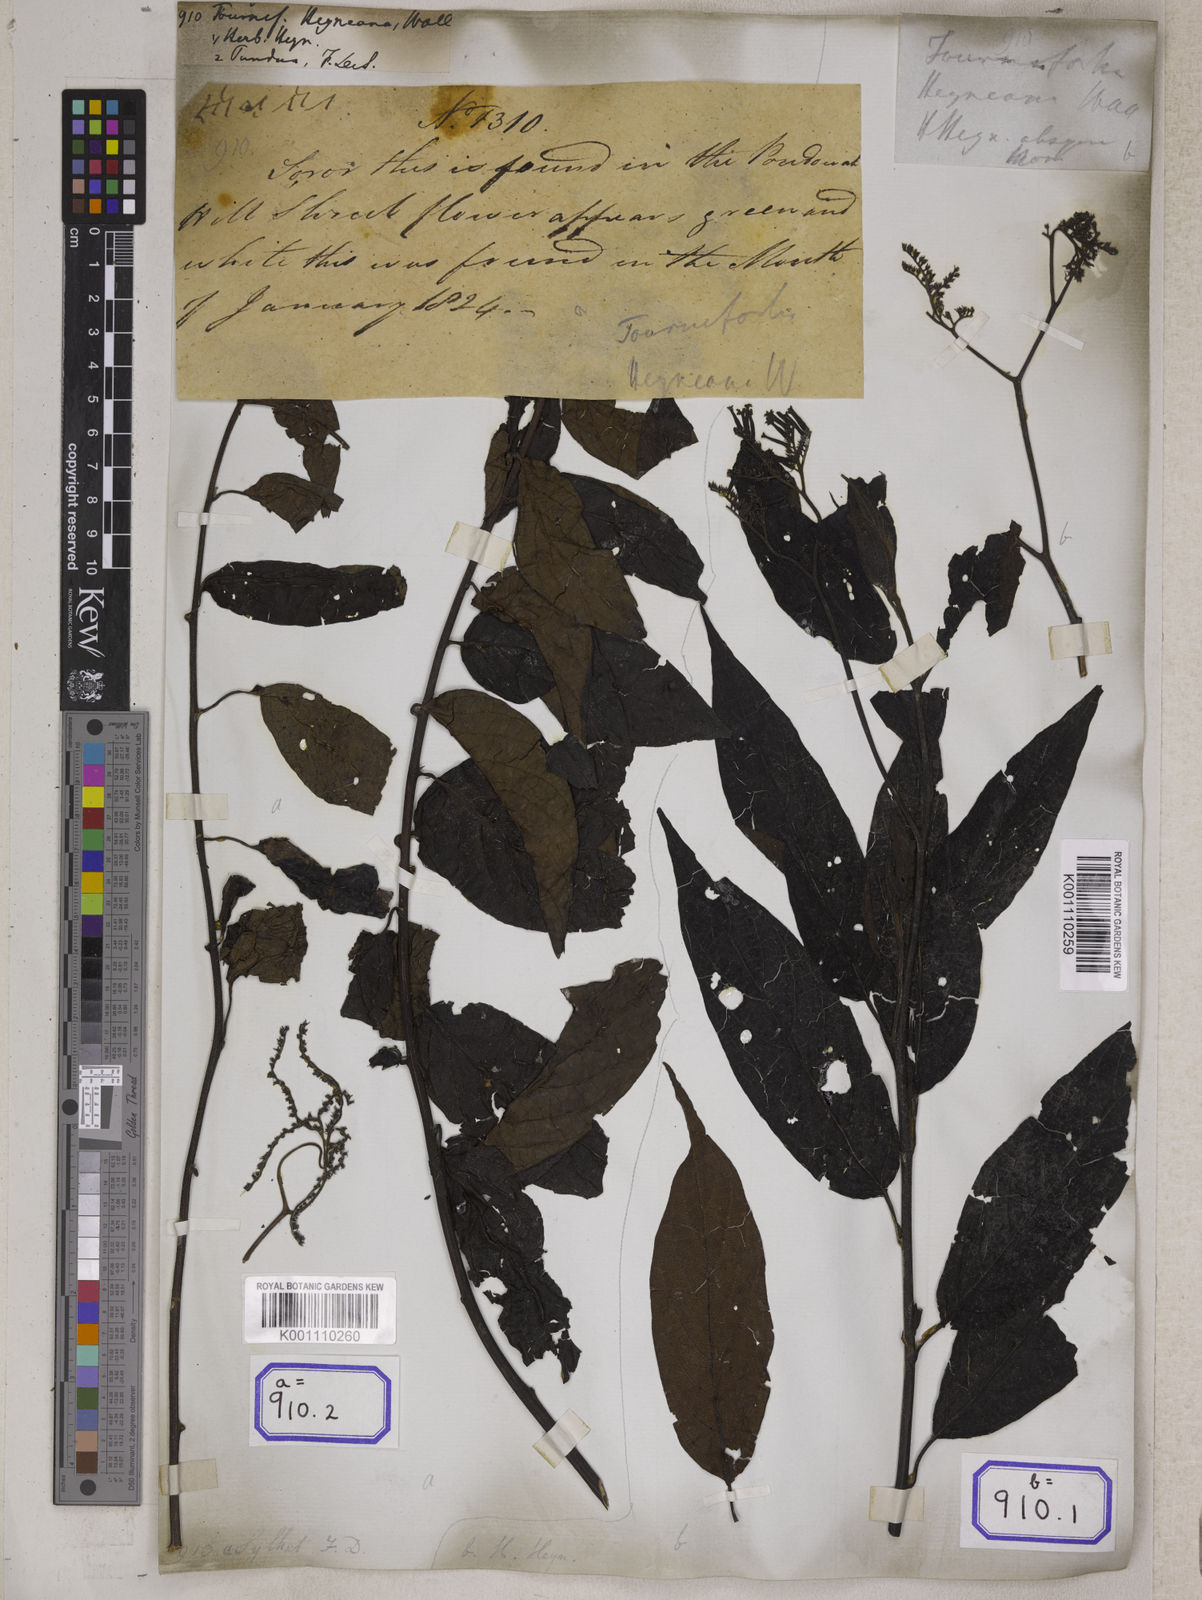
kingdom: Plantae
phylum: Tracheophyta
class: Magnoliopsida
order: Boraginales
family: Heliotropiaceae
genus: Tournefortia
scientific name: Tournefortia
